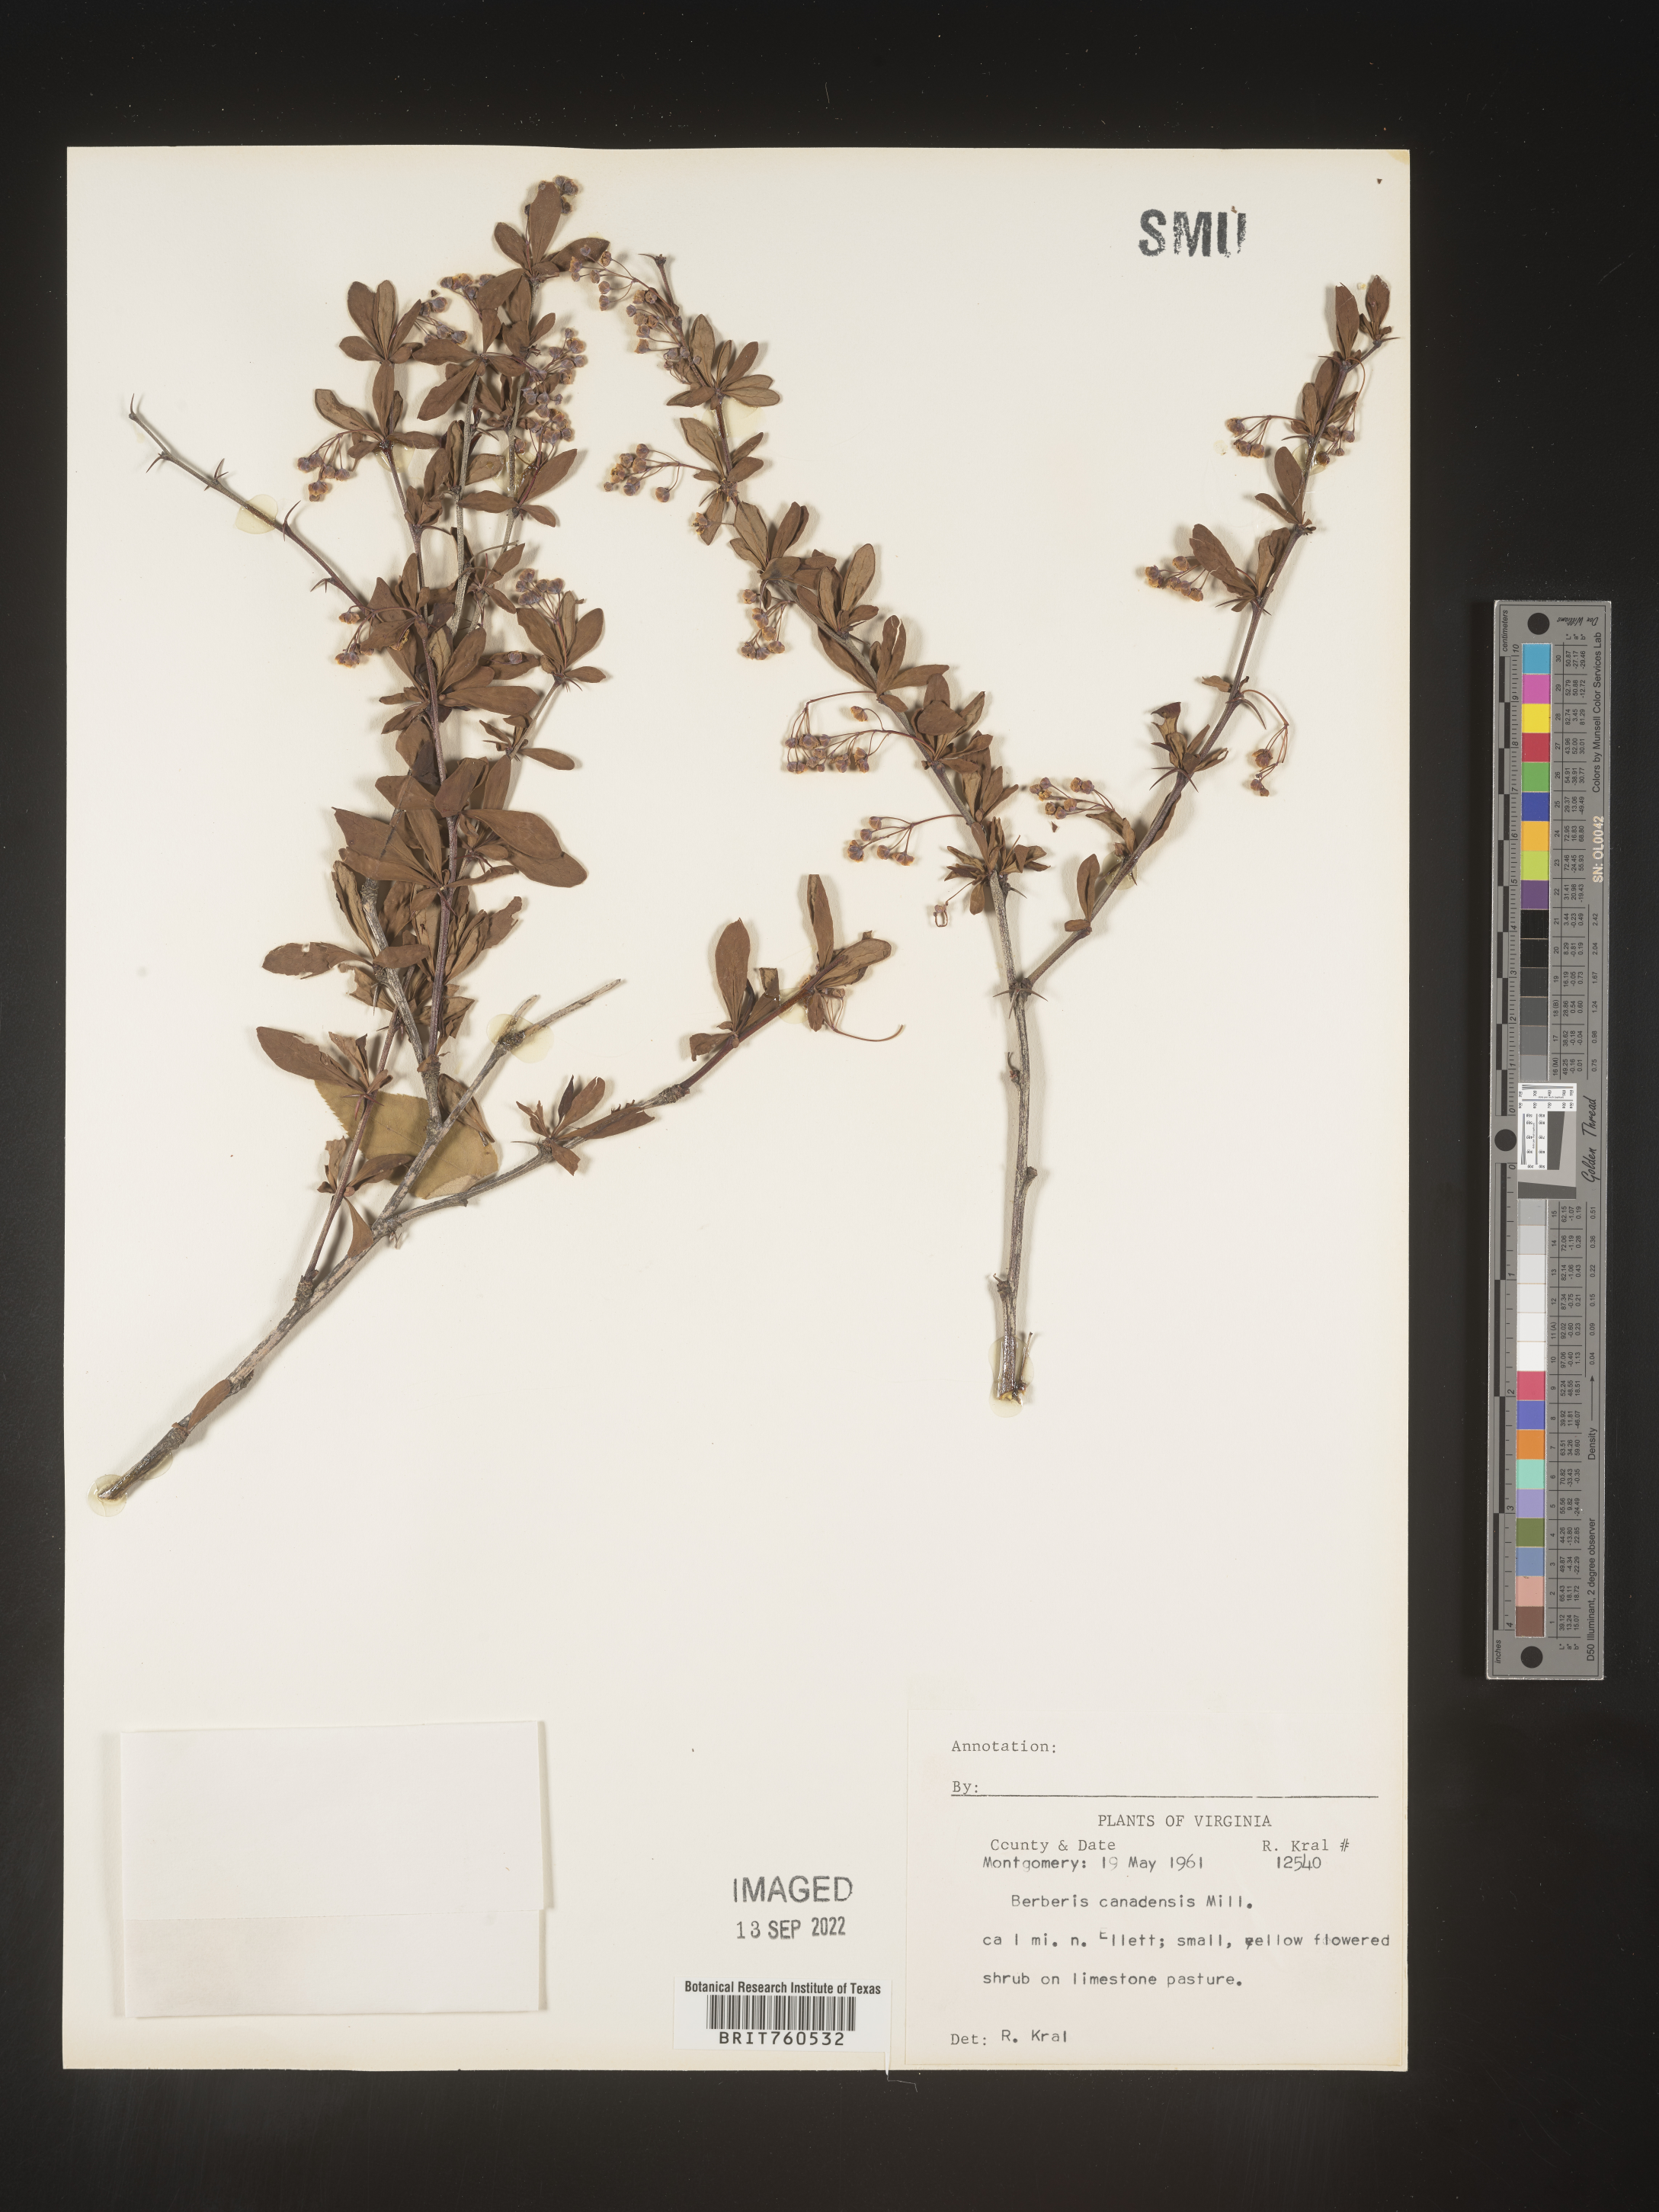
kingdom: Plantae
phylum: Tracheophyta
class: Magnoliopsida
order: Ranunculales
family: Berberidaceae
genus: Berberis
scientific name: Berberis
